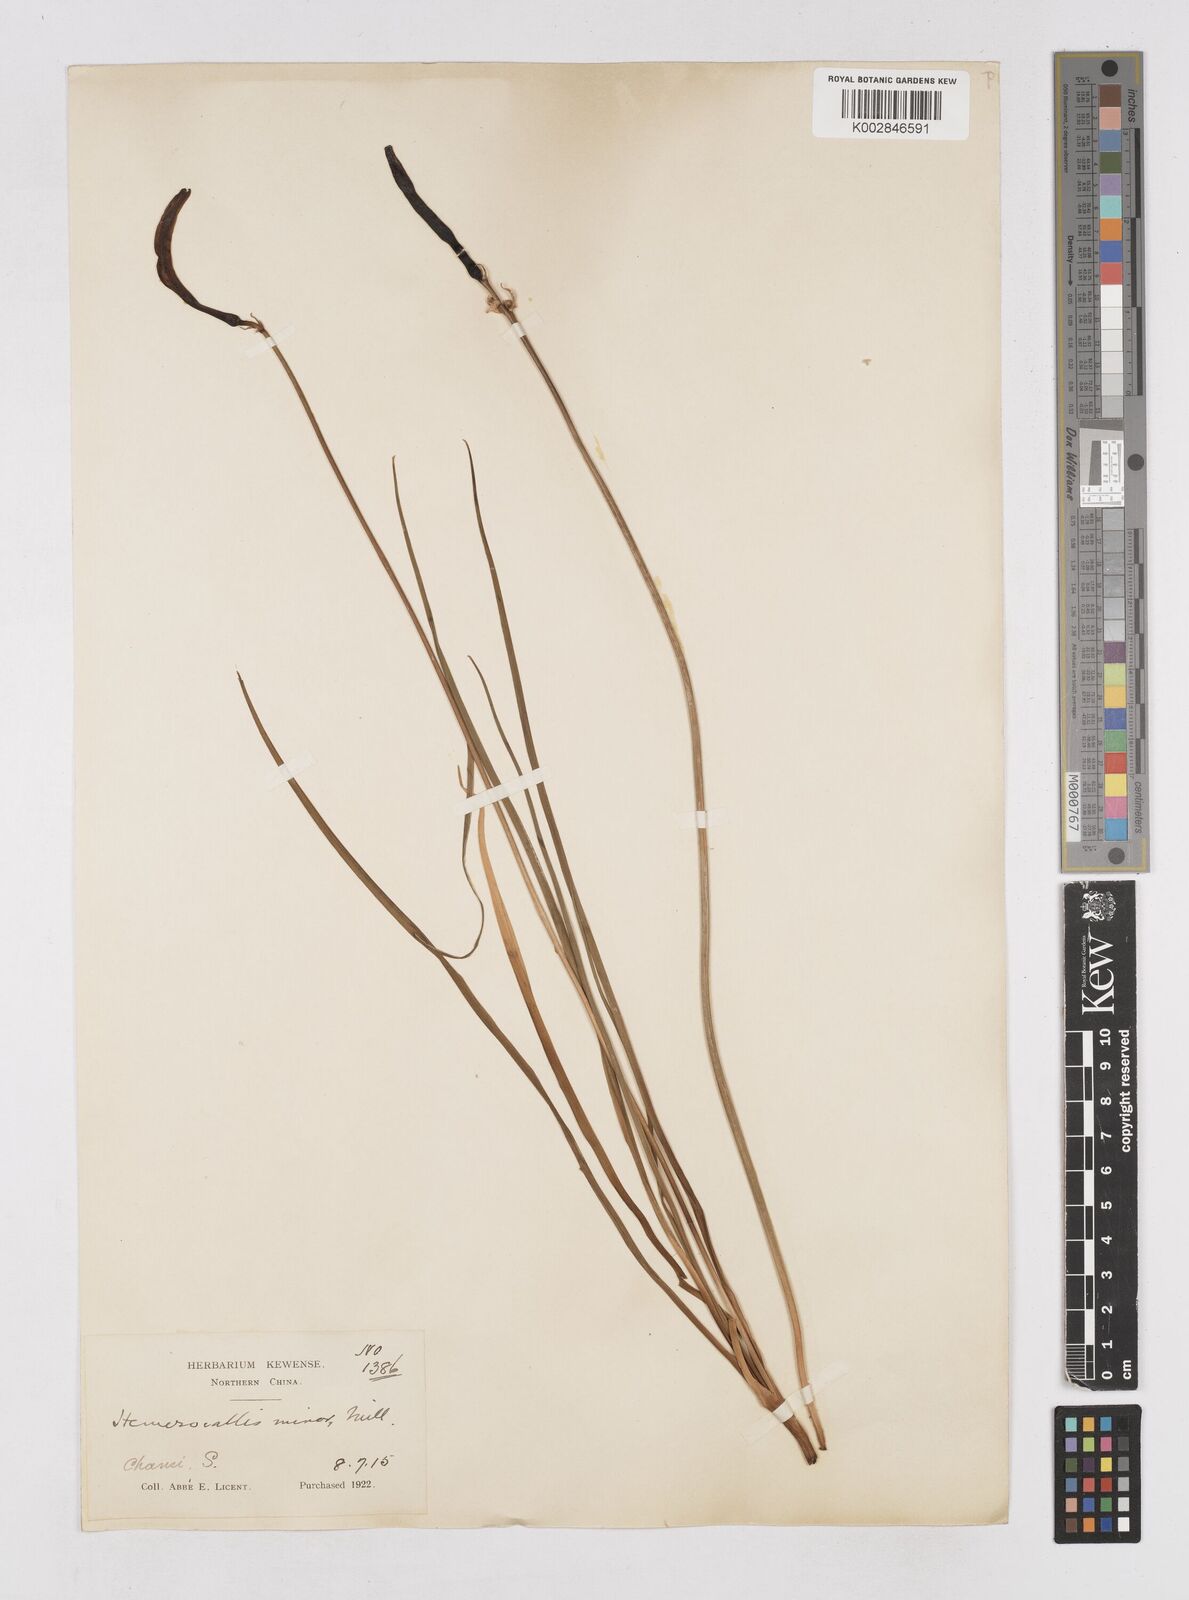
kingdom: Plantae
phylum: Tracheophyta
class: Liliopsida
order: Asparagales
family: Asphodelaceae
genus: Hemerocallis
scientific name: Hemerocallis minor
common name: Small daylily
